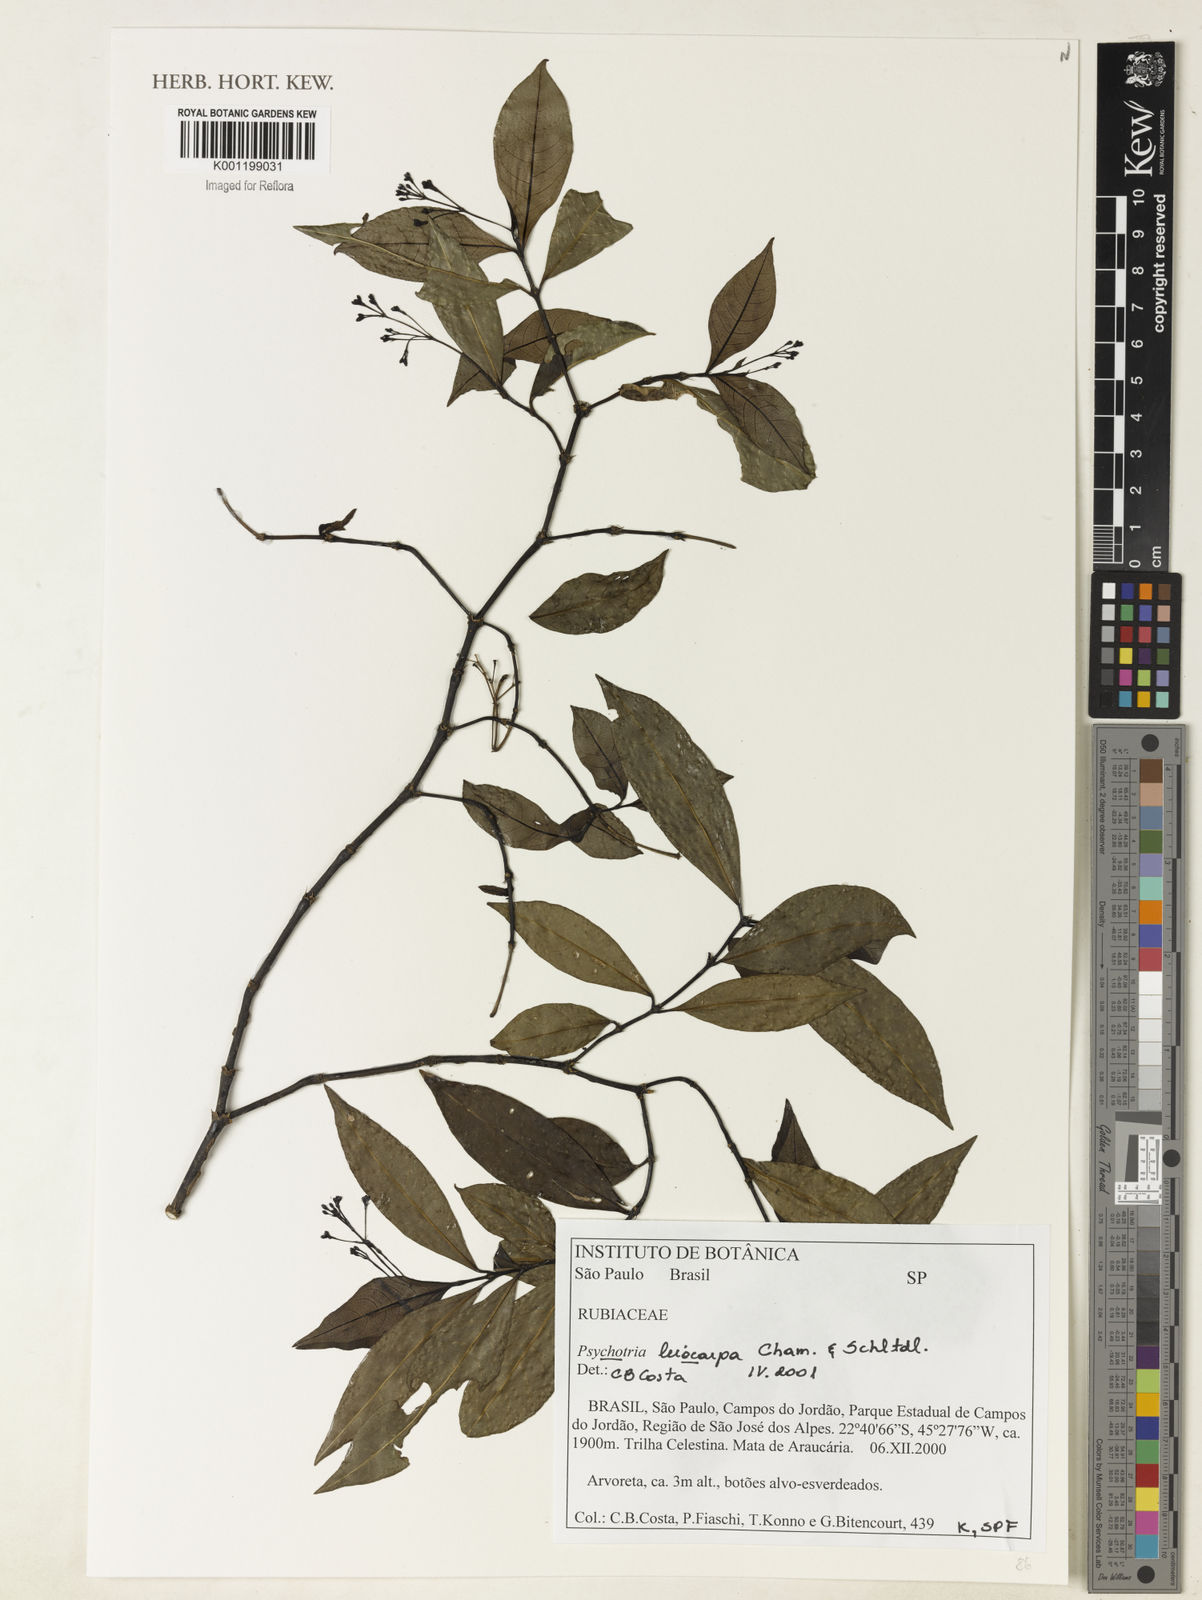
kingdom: Plantae
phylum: Tracheophyta
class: Magnoliopsida
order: Gentianales
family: Rubiaceae
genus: Psychotria
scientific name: Psychotria leiocarpa
